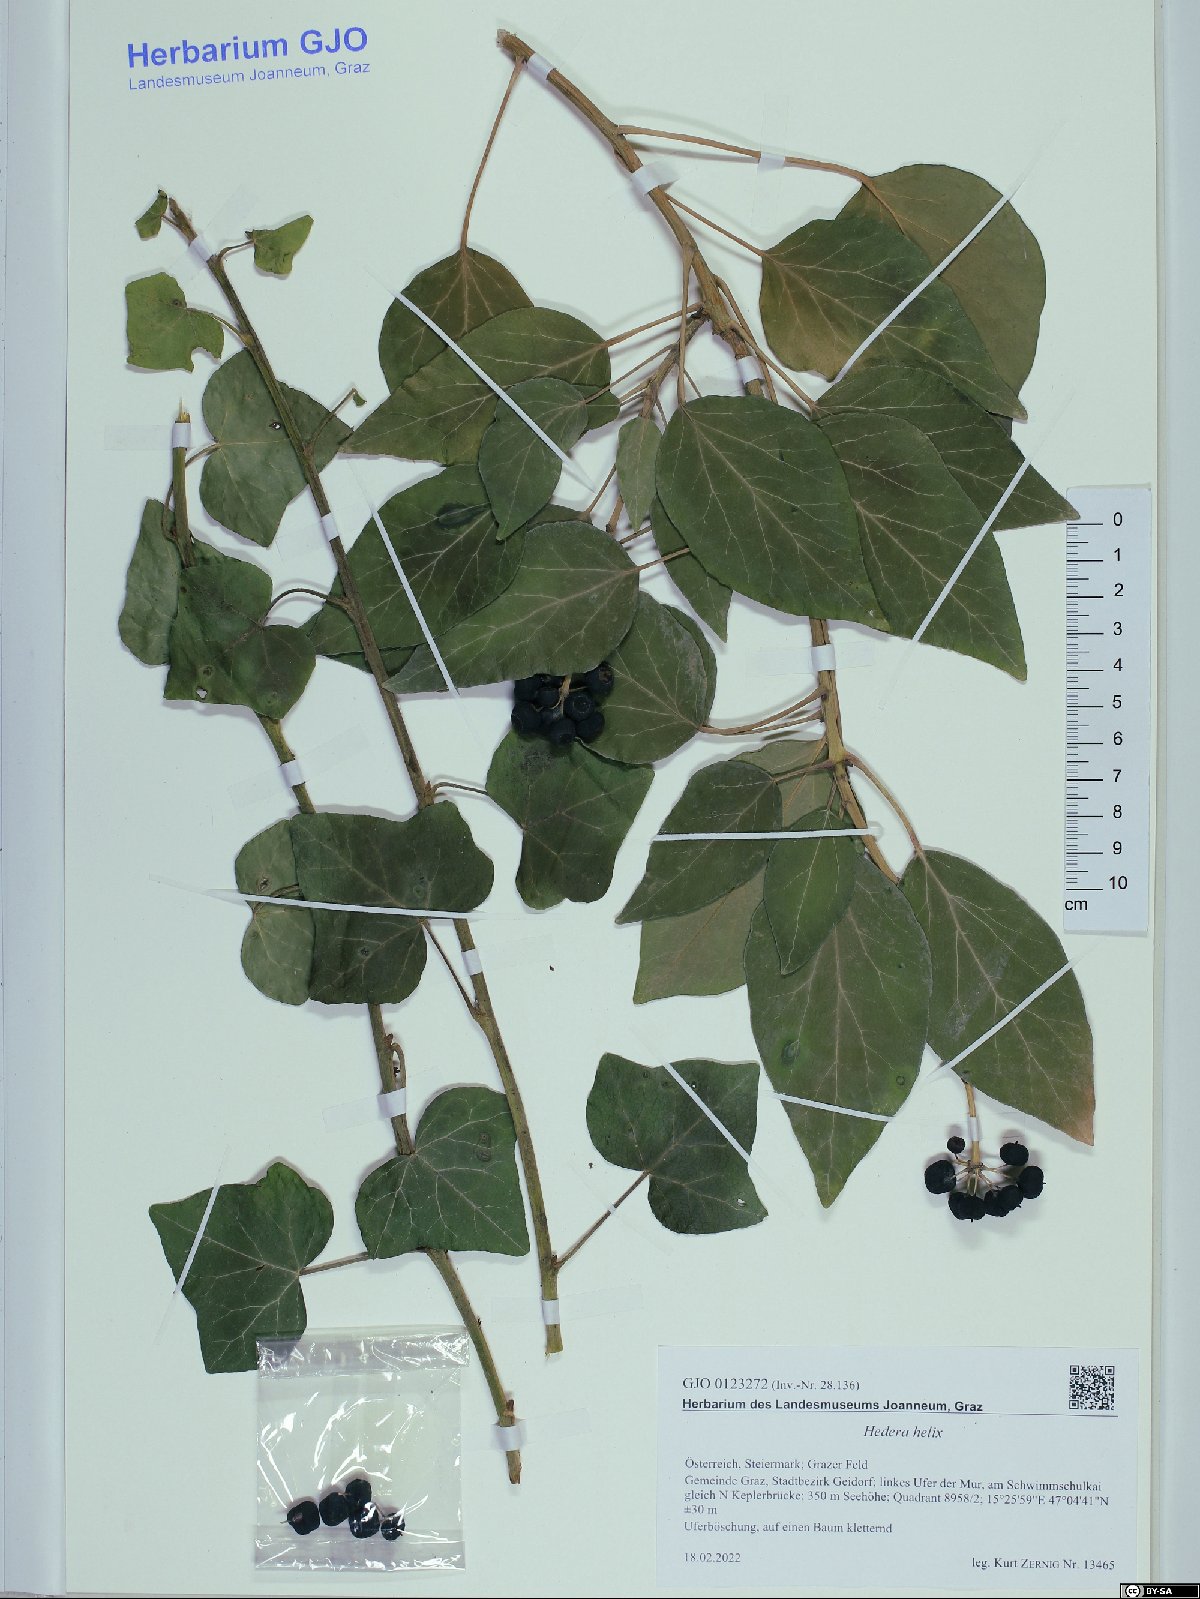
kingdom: Plantae
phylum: Tracheophyta
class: Magnoliopsida
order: Apiales
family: Araliaceae
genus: Hedera
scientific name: Hedera helix
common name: Ivy
